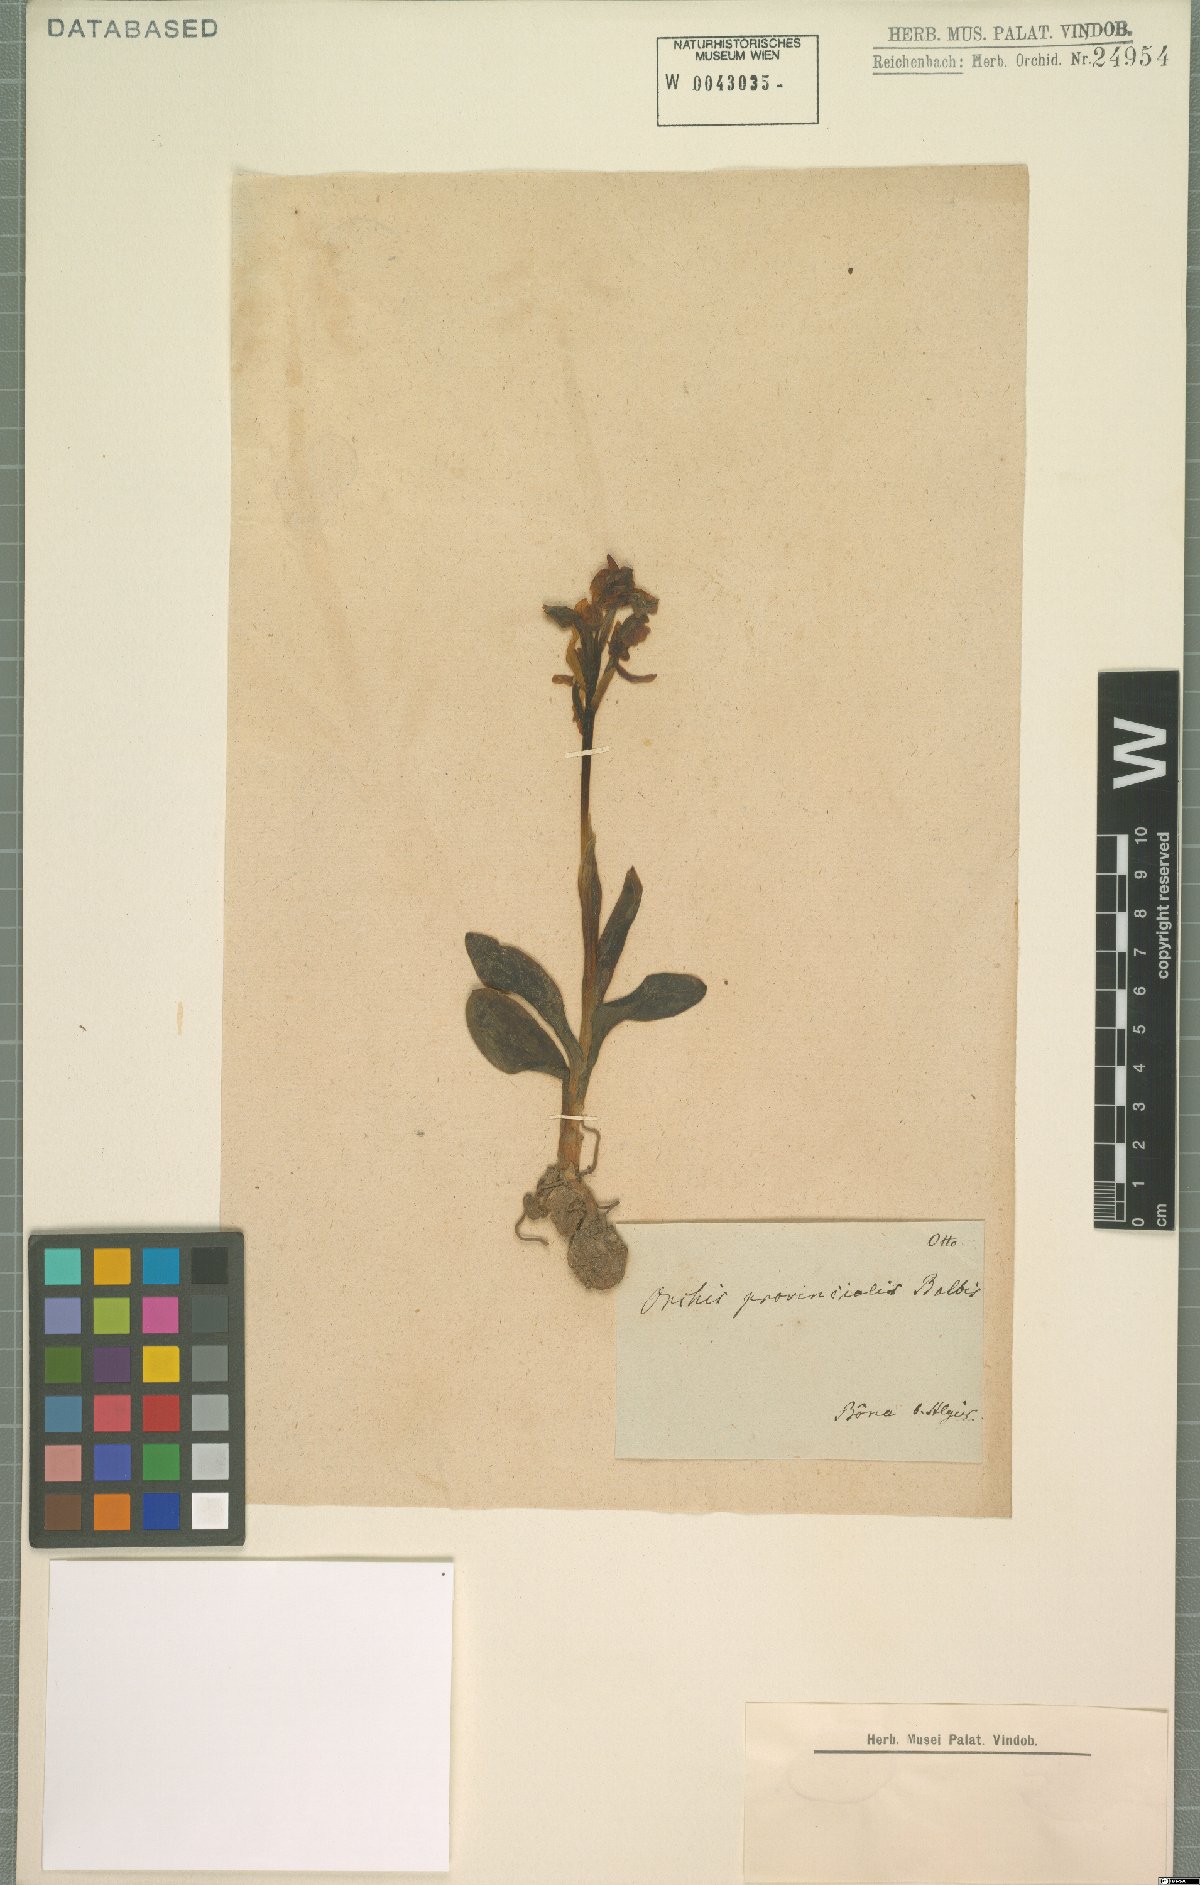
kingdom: Plantae
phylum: Tracheophyta
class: Liliopsida
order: Asparagales
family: Orchidaceae
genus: Orchis
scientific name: Orchis provincialis
